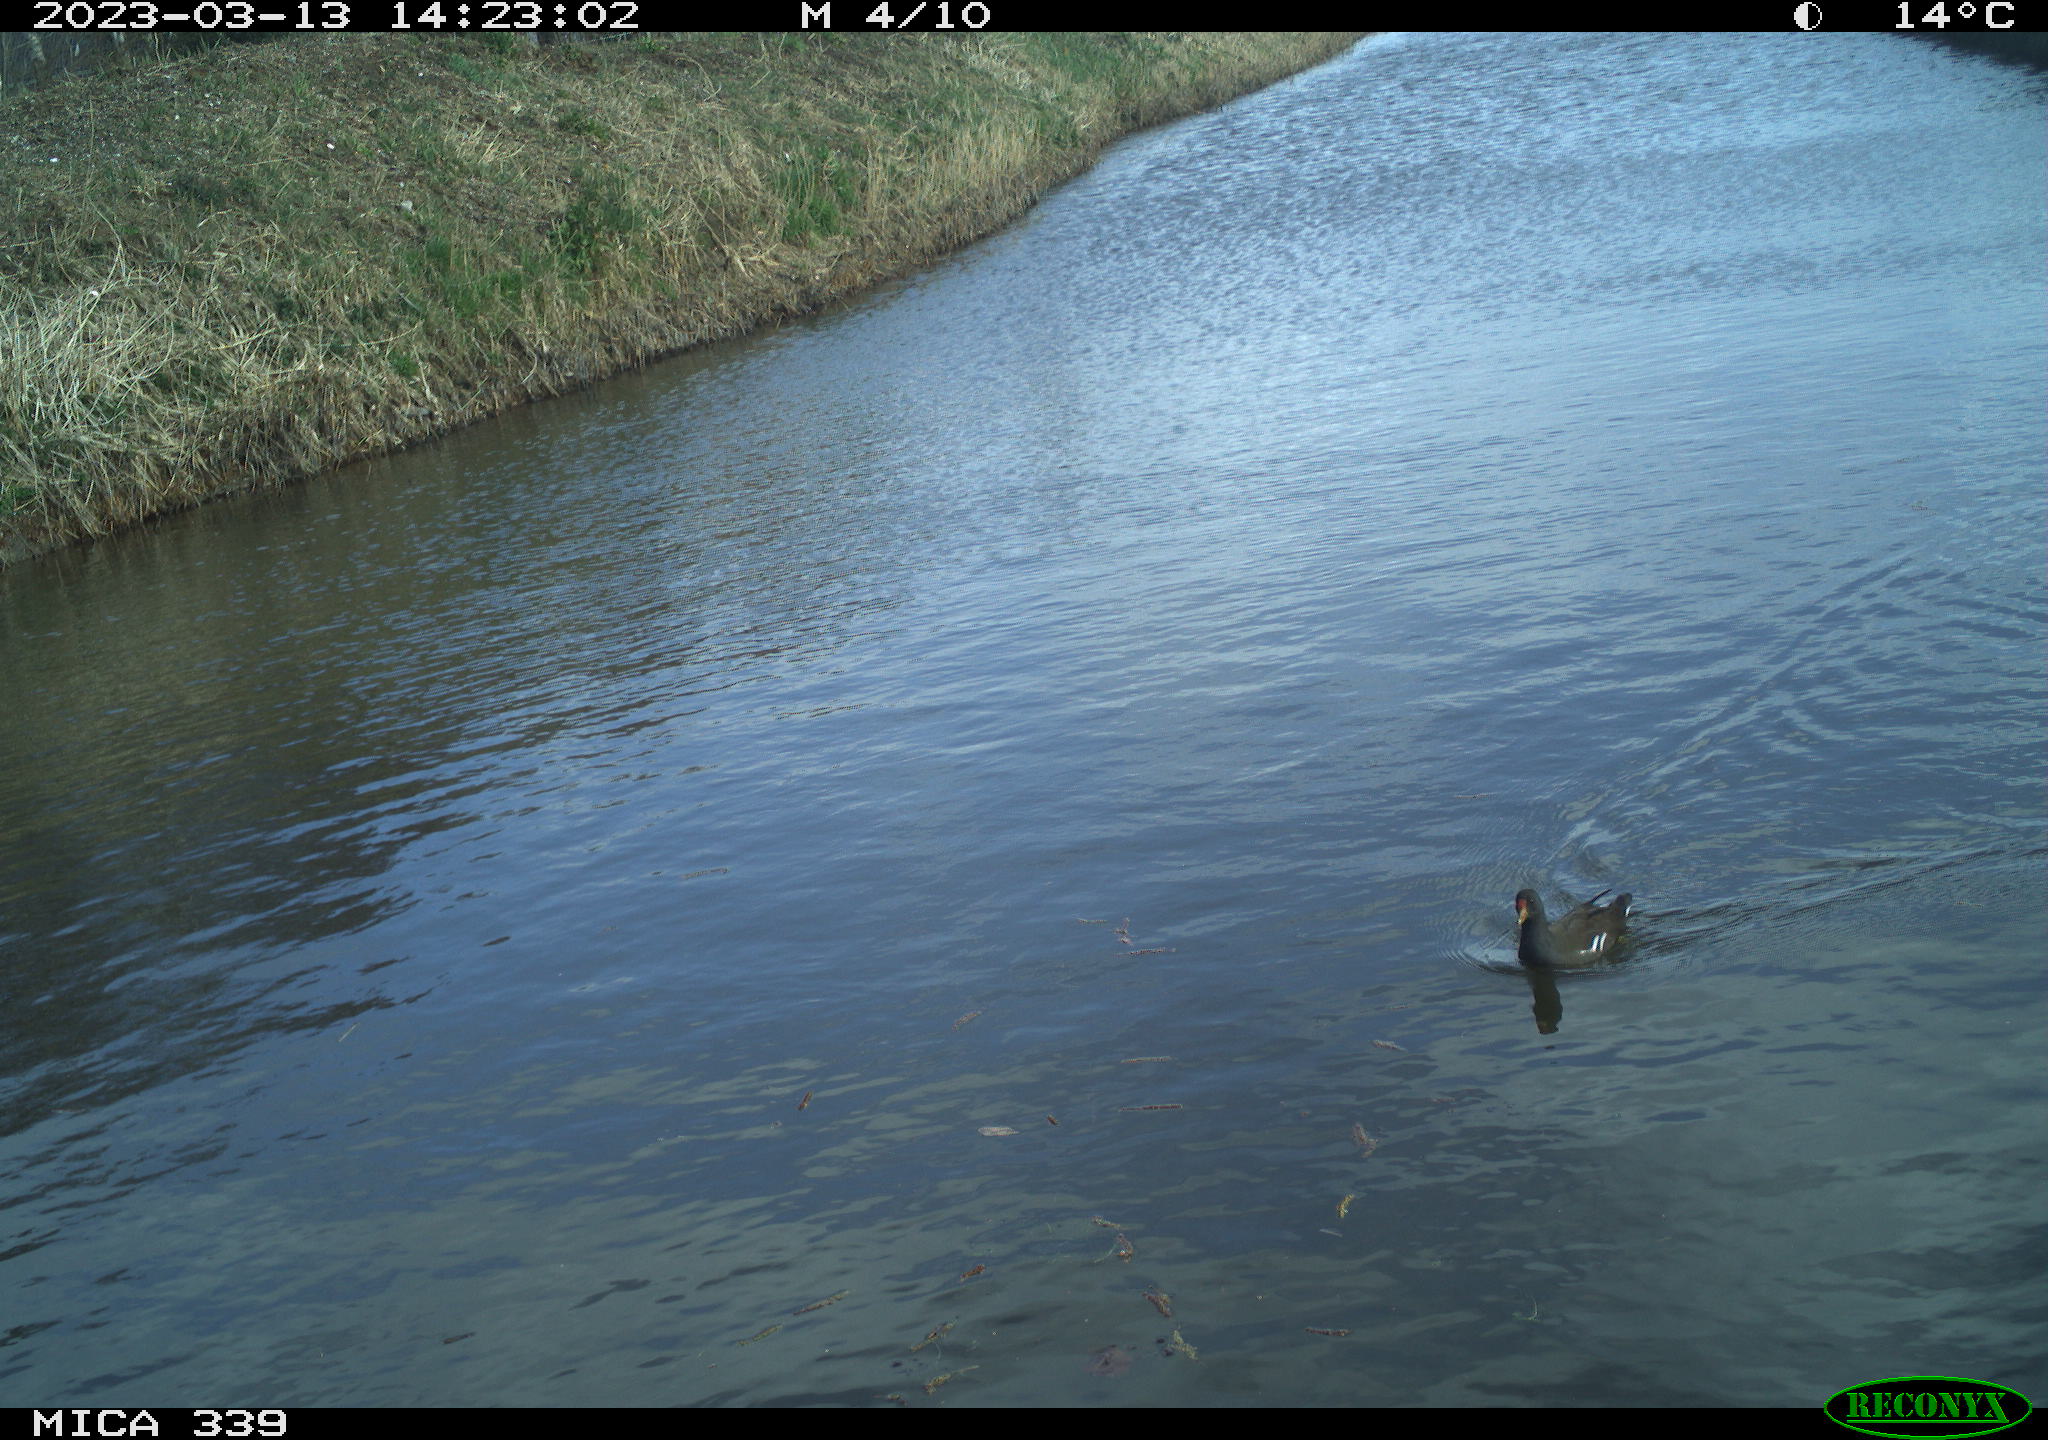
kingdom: Animalia
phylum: Chordata
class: Aves
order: Gruiformes
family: Rallidae
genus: Gallinula
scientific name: Gallinula chloropus
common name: Common moorhen
